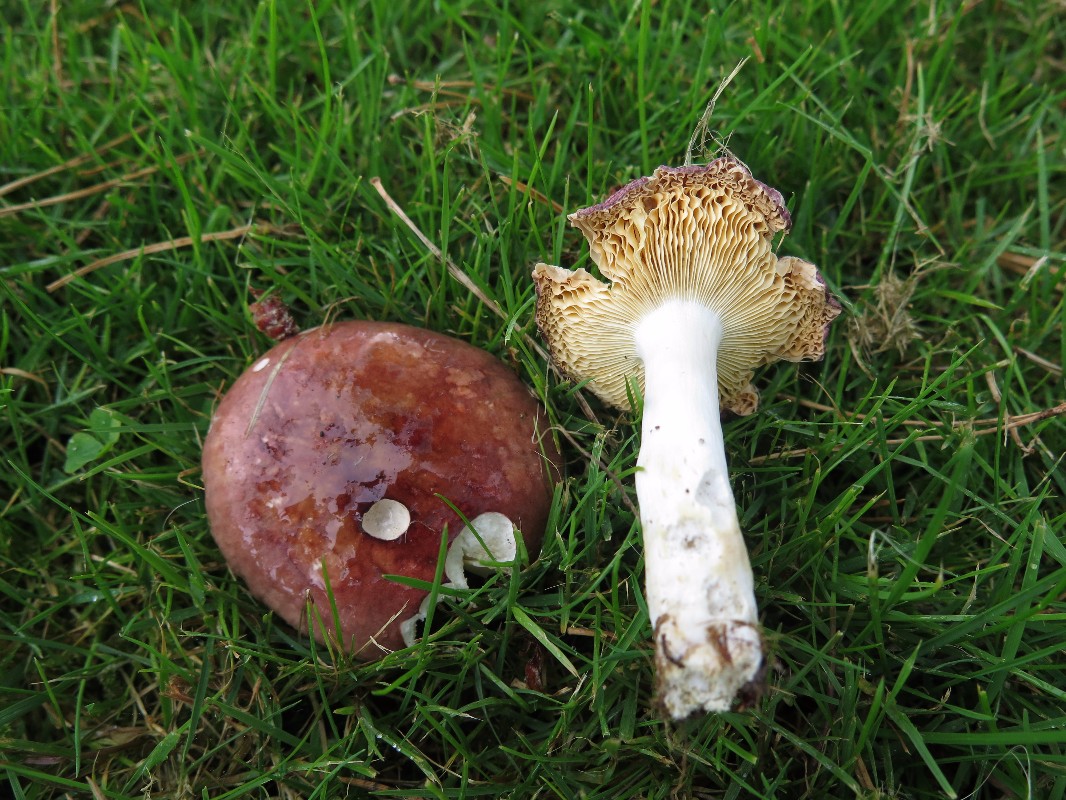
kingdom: Fungi
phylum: Basidiomycota
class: Agaricomycetes
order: Russulales
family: Russulaceae
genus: Russula
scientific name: Russula cessans
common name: fyrre-skørhat
